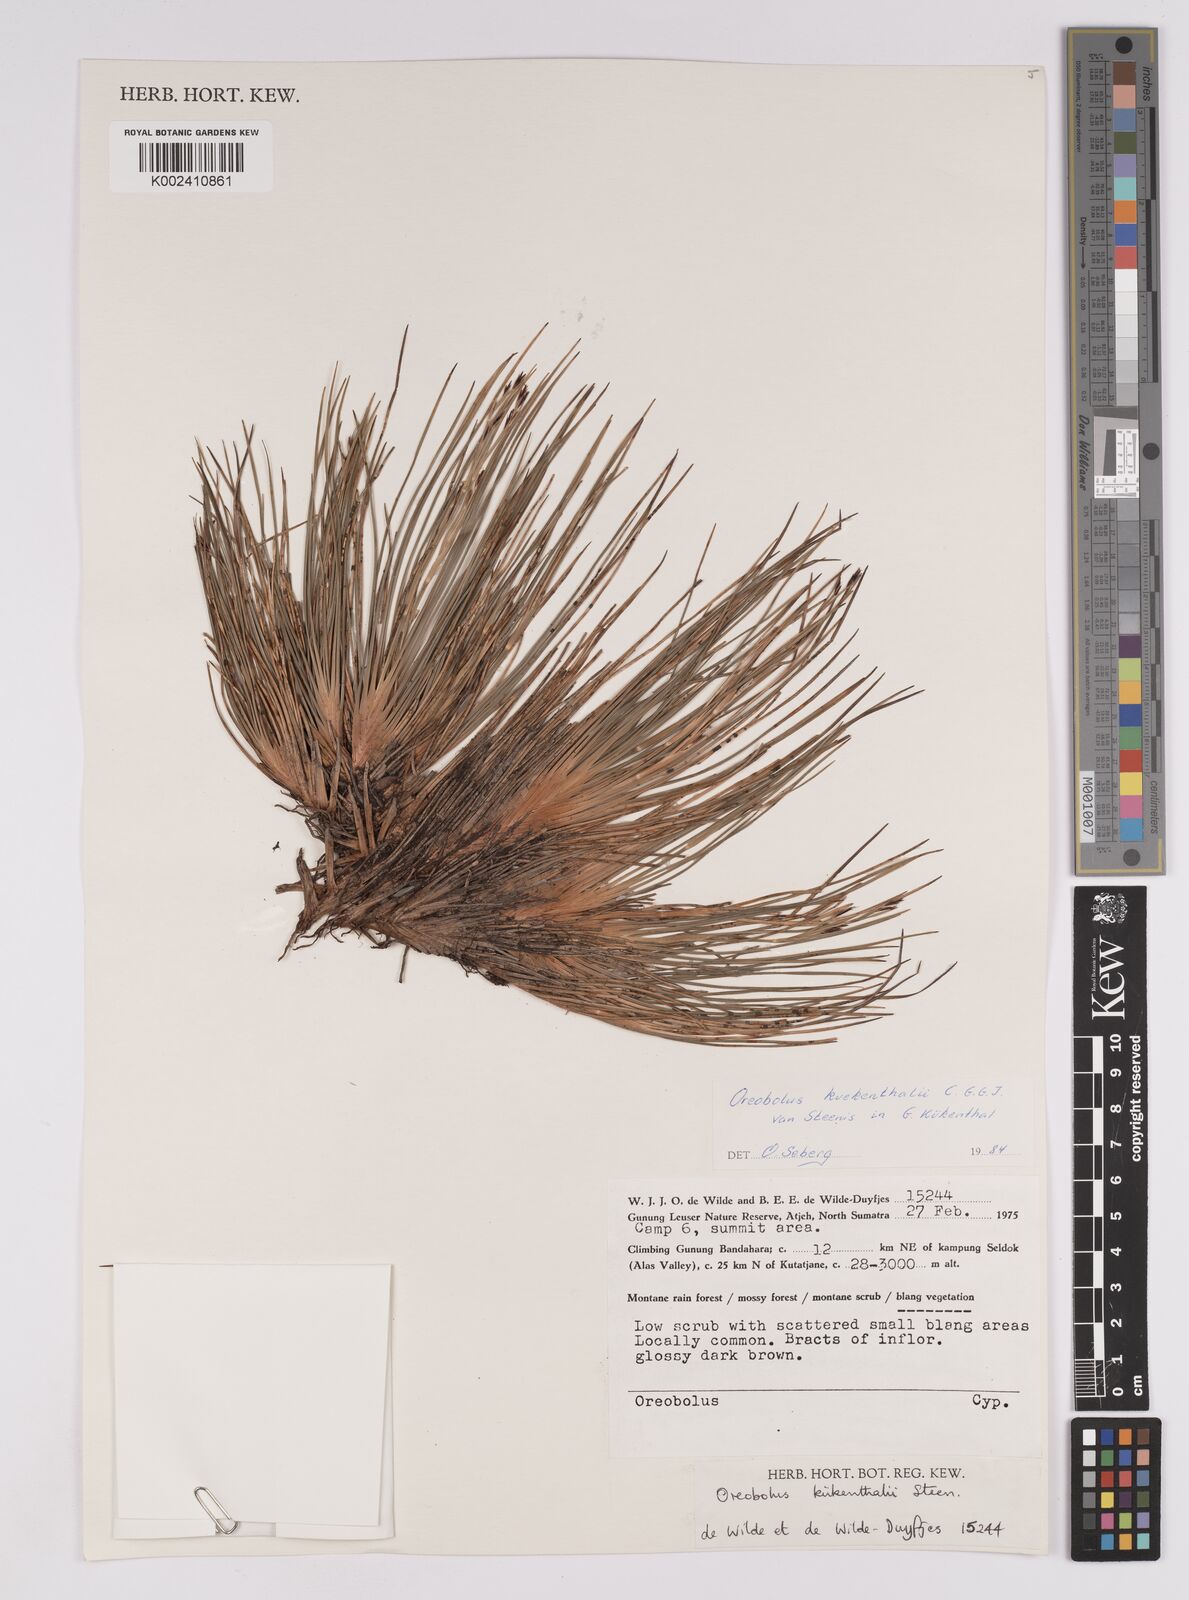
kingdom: Plantae
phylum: Tracheophyta
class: Liliopsida
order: Poales
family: Cyperaceae
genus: Oreobolus
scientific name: Oreobolus kuekenthalii
